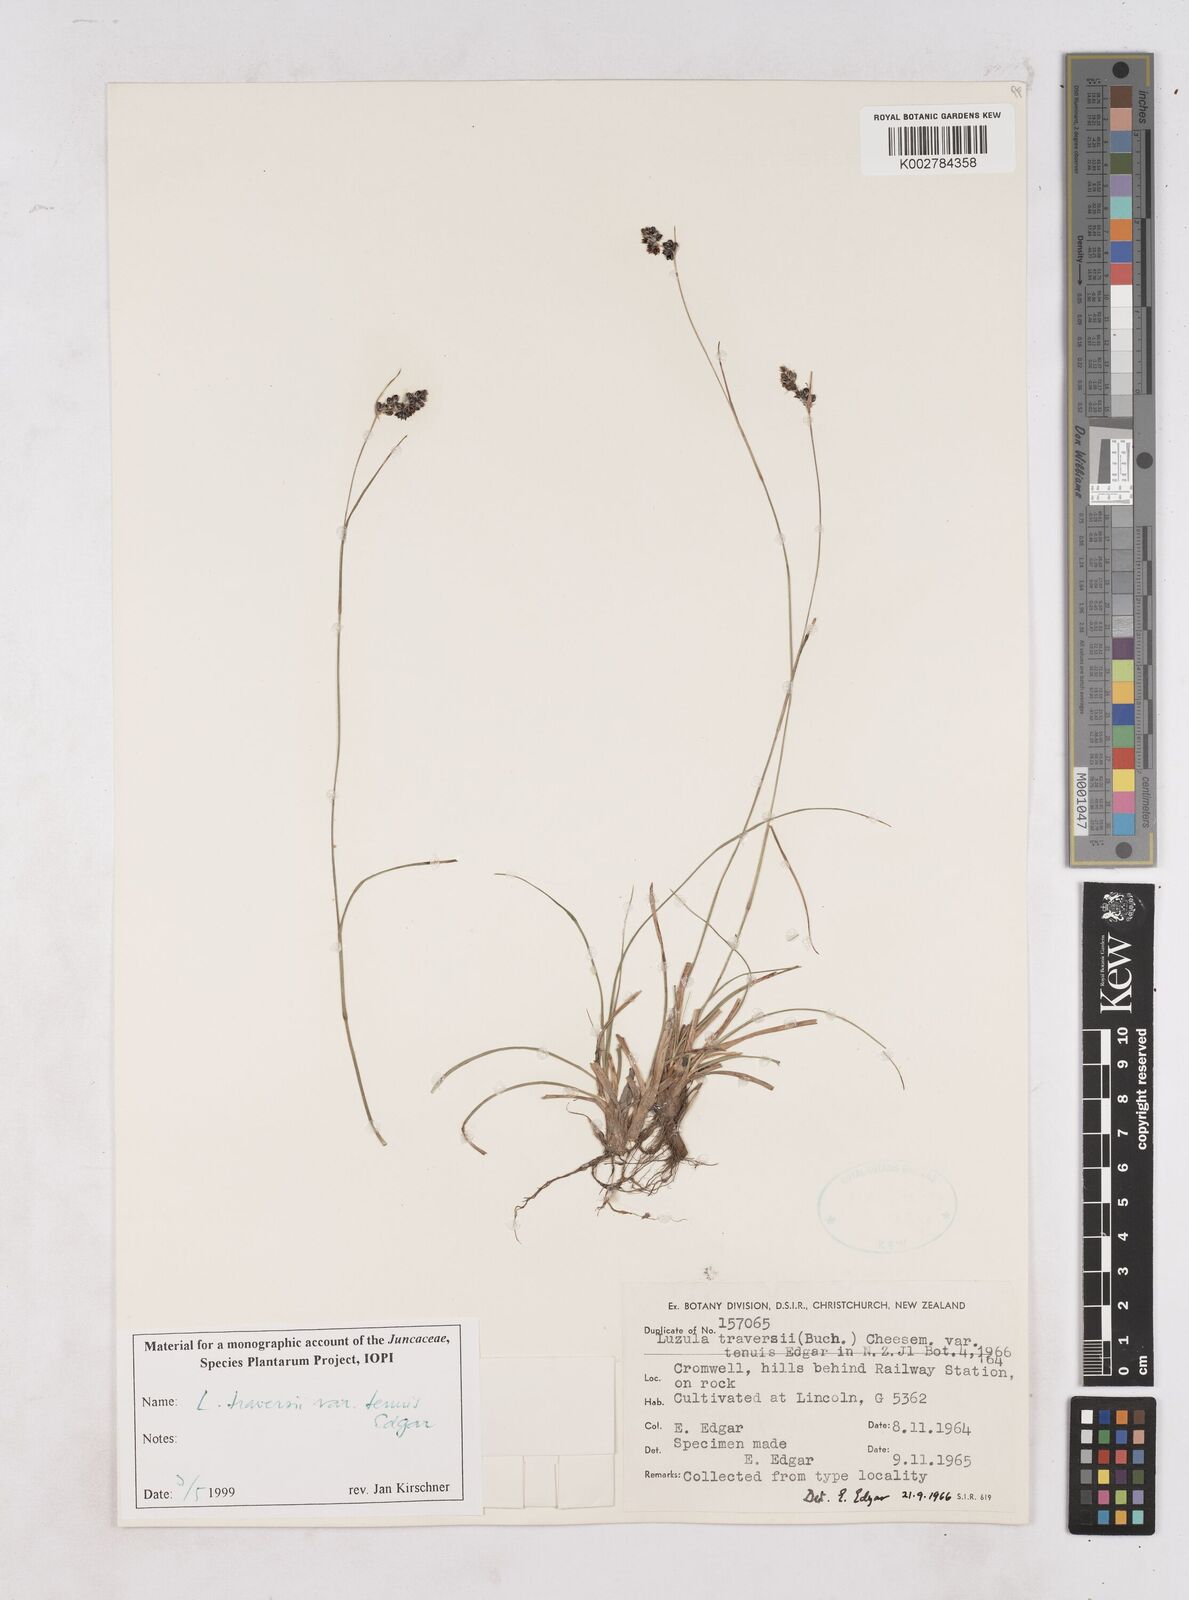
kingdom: Plantae
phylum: Tracheophyta
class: Liliopsida
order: Poales
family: Juncaceae
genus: Luzula
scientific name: Luzula traversii
